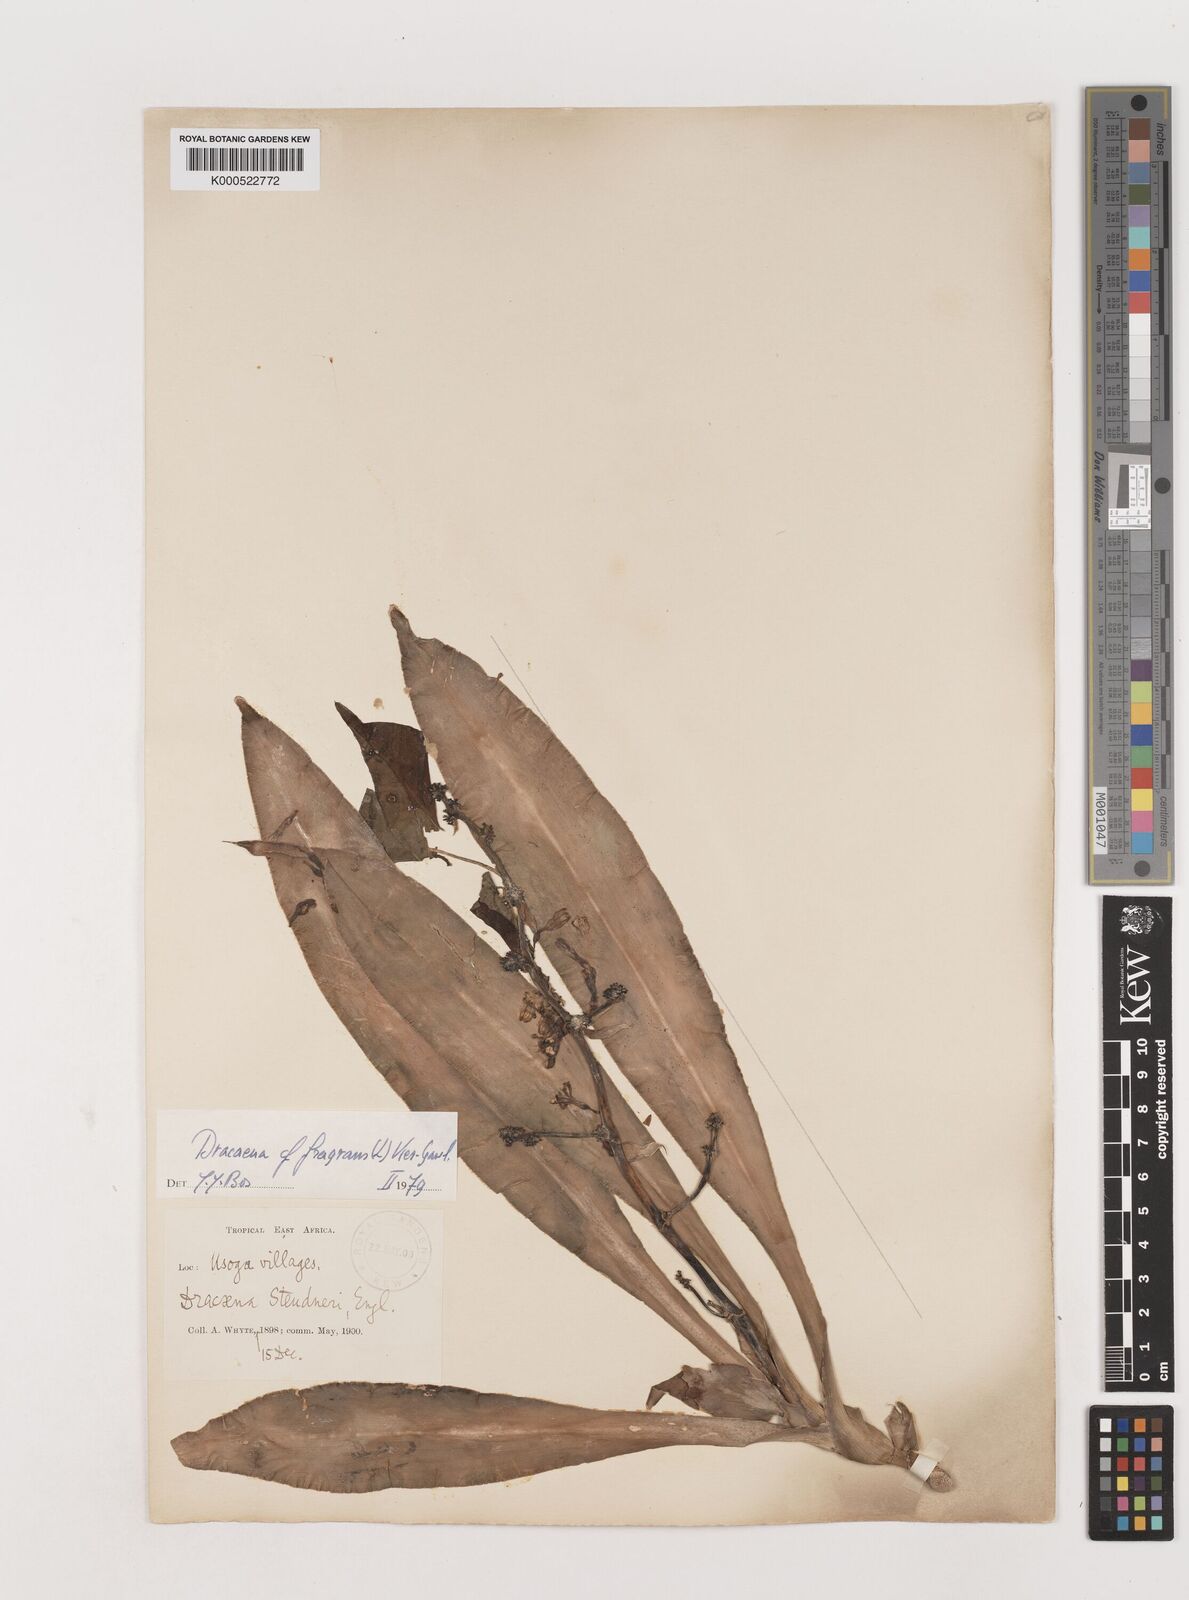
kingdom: Plantae
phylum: Tracheophyta
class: Liliopsida
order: Asparagales
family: Asparagaceae
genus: Dracaena
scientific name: Dracaena fragrans
